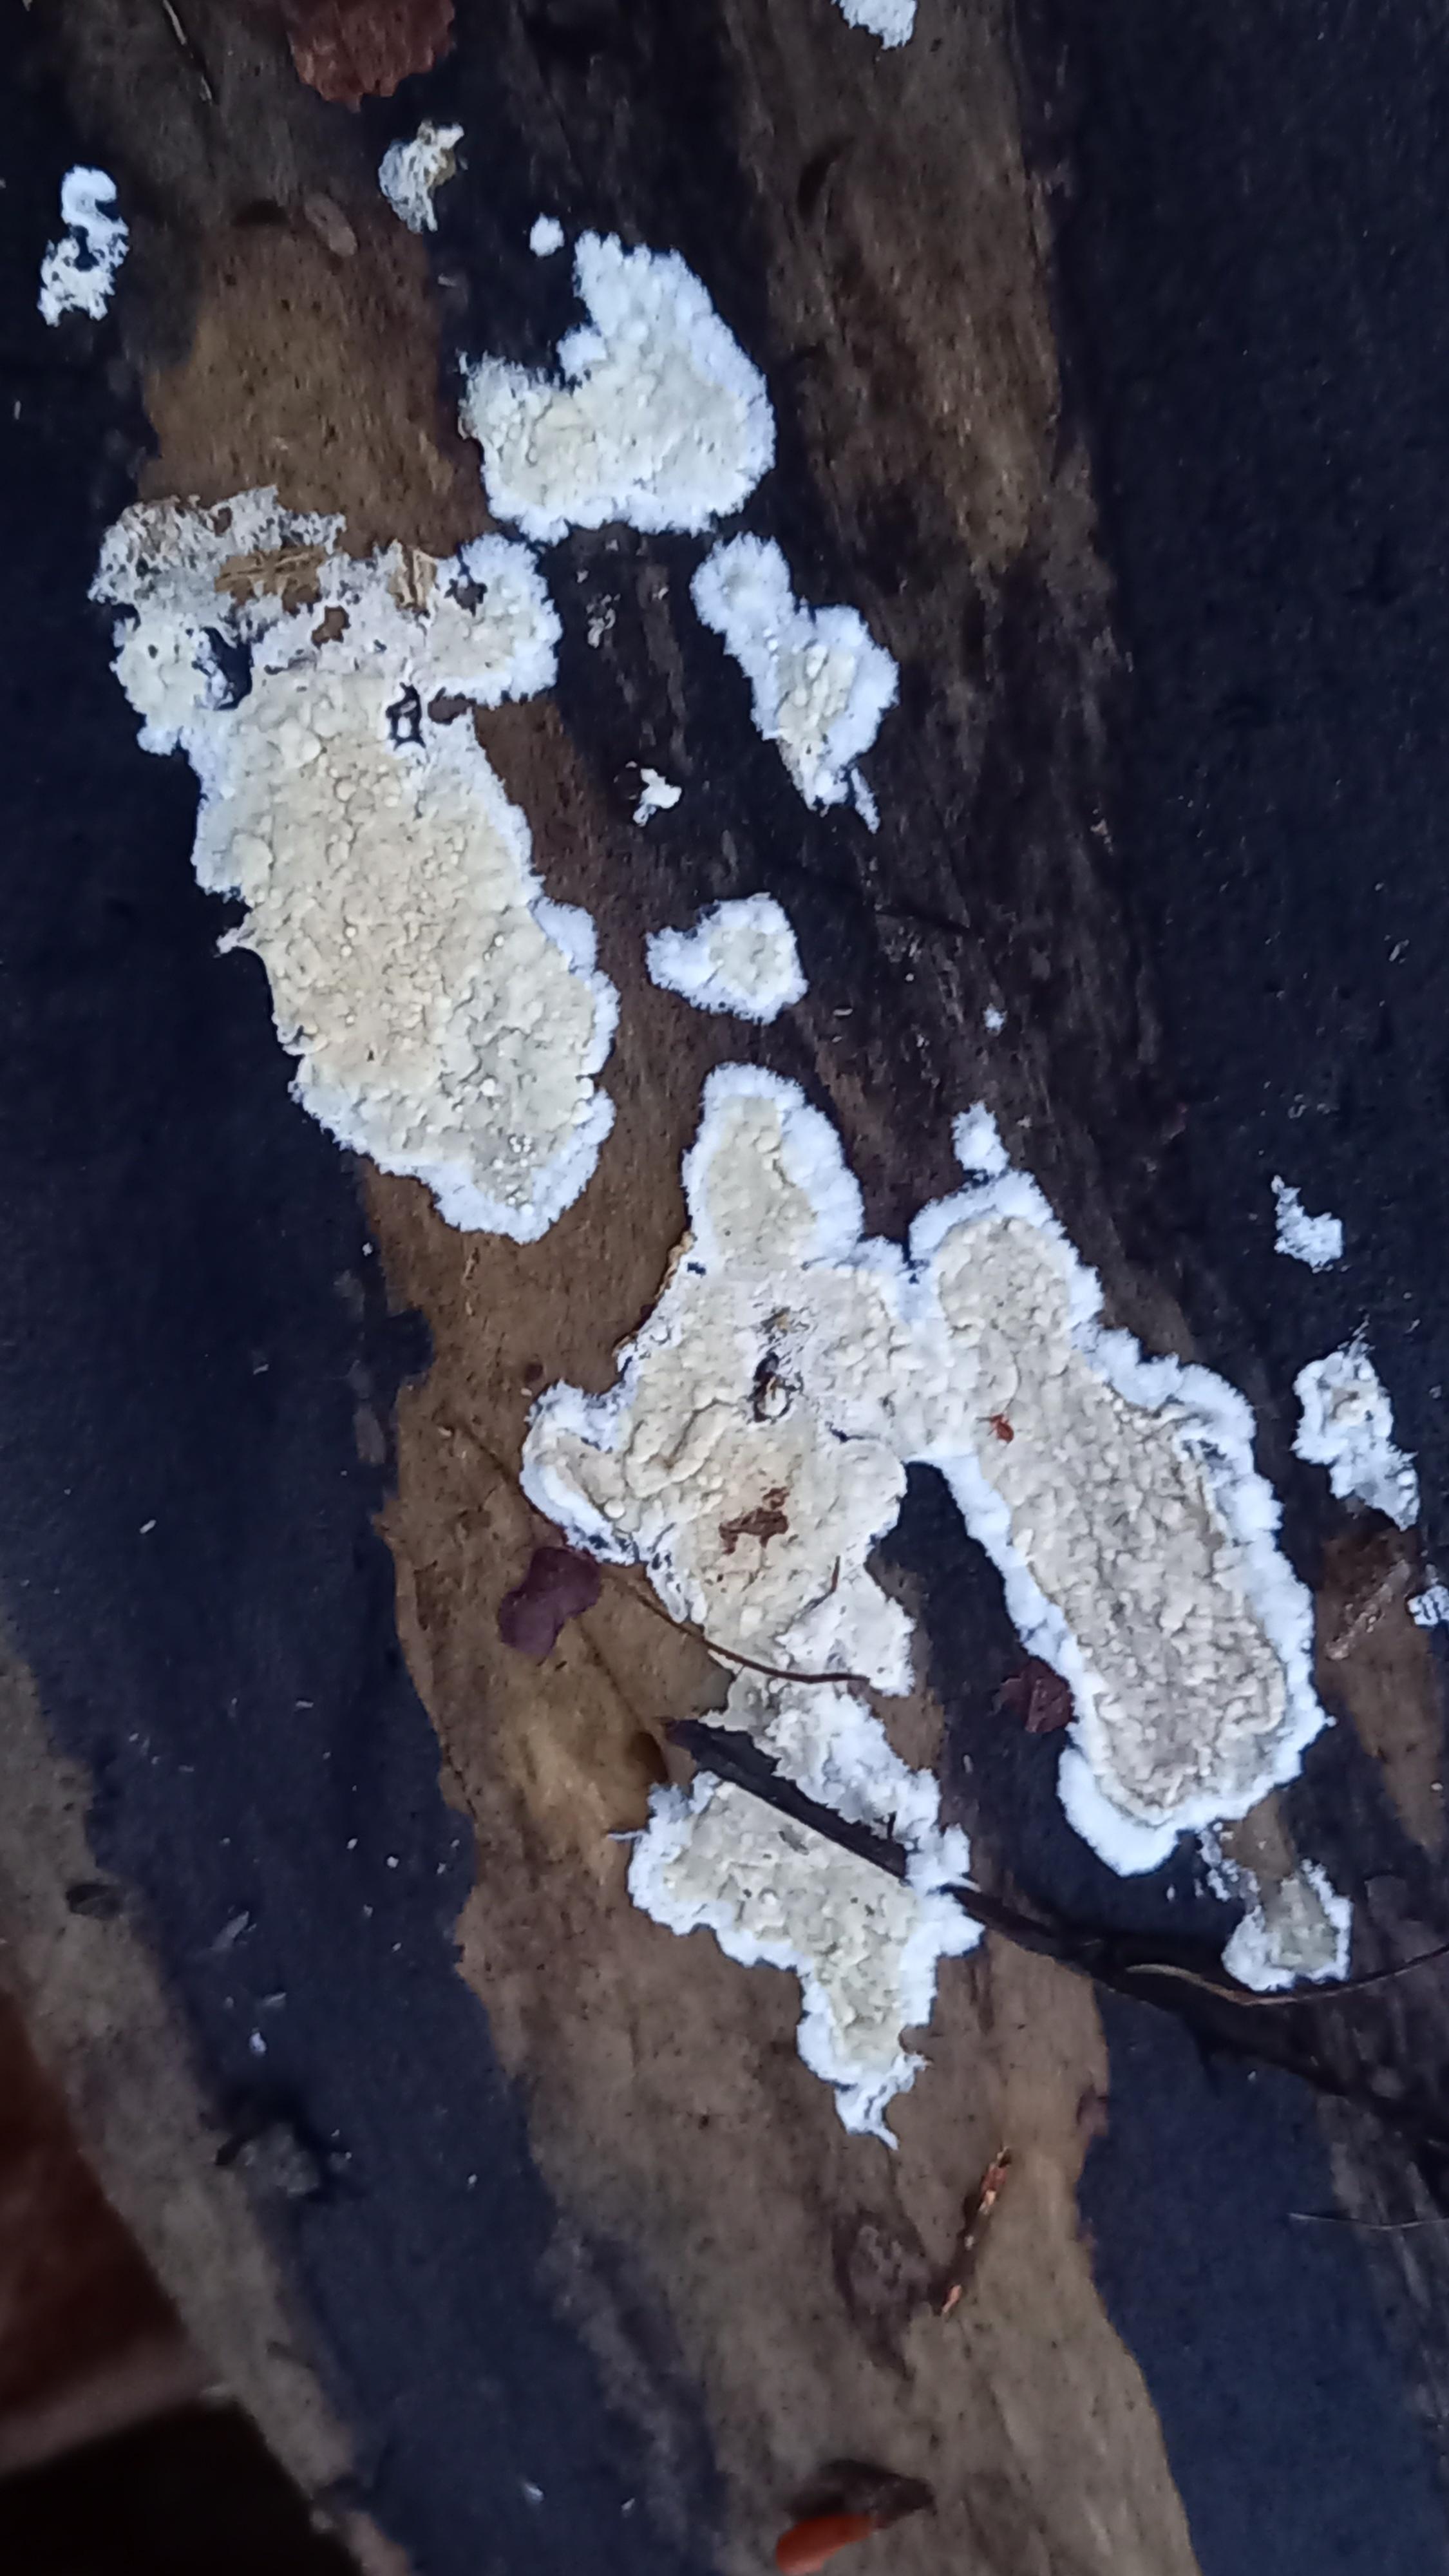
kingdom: Fungi
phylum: Basidiomycota
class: Agaricomycetes
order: Agaricales
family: Physalacriaceae
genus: Cylindrobasidium
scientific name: Cylindrobasidium evolvens
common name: sprækkehinde
